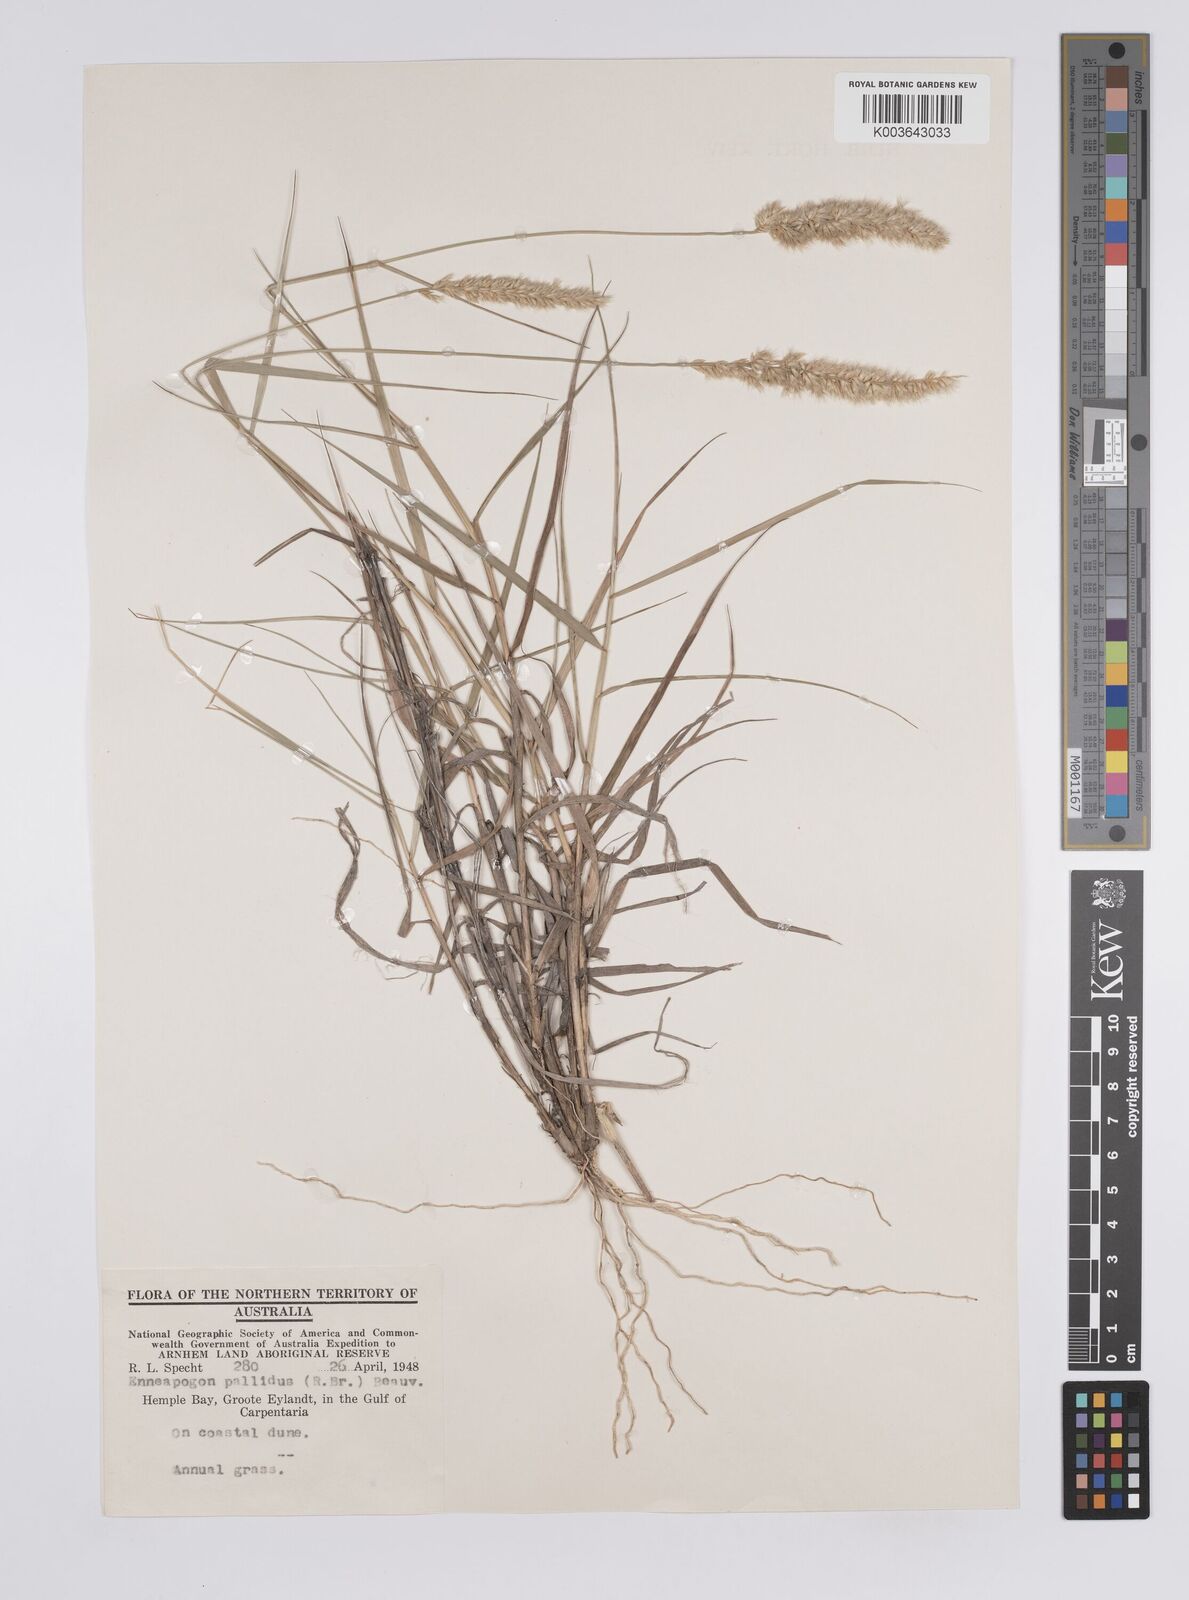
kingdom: Plantae
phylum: Tracheophyta
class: Liliopsida
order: Poales
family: Poaceae
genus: Enneapogon
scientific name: Enneapogon pallidus
